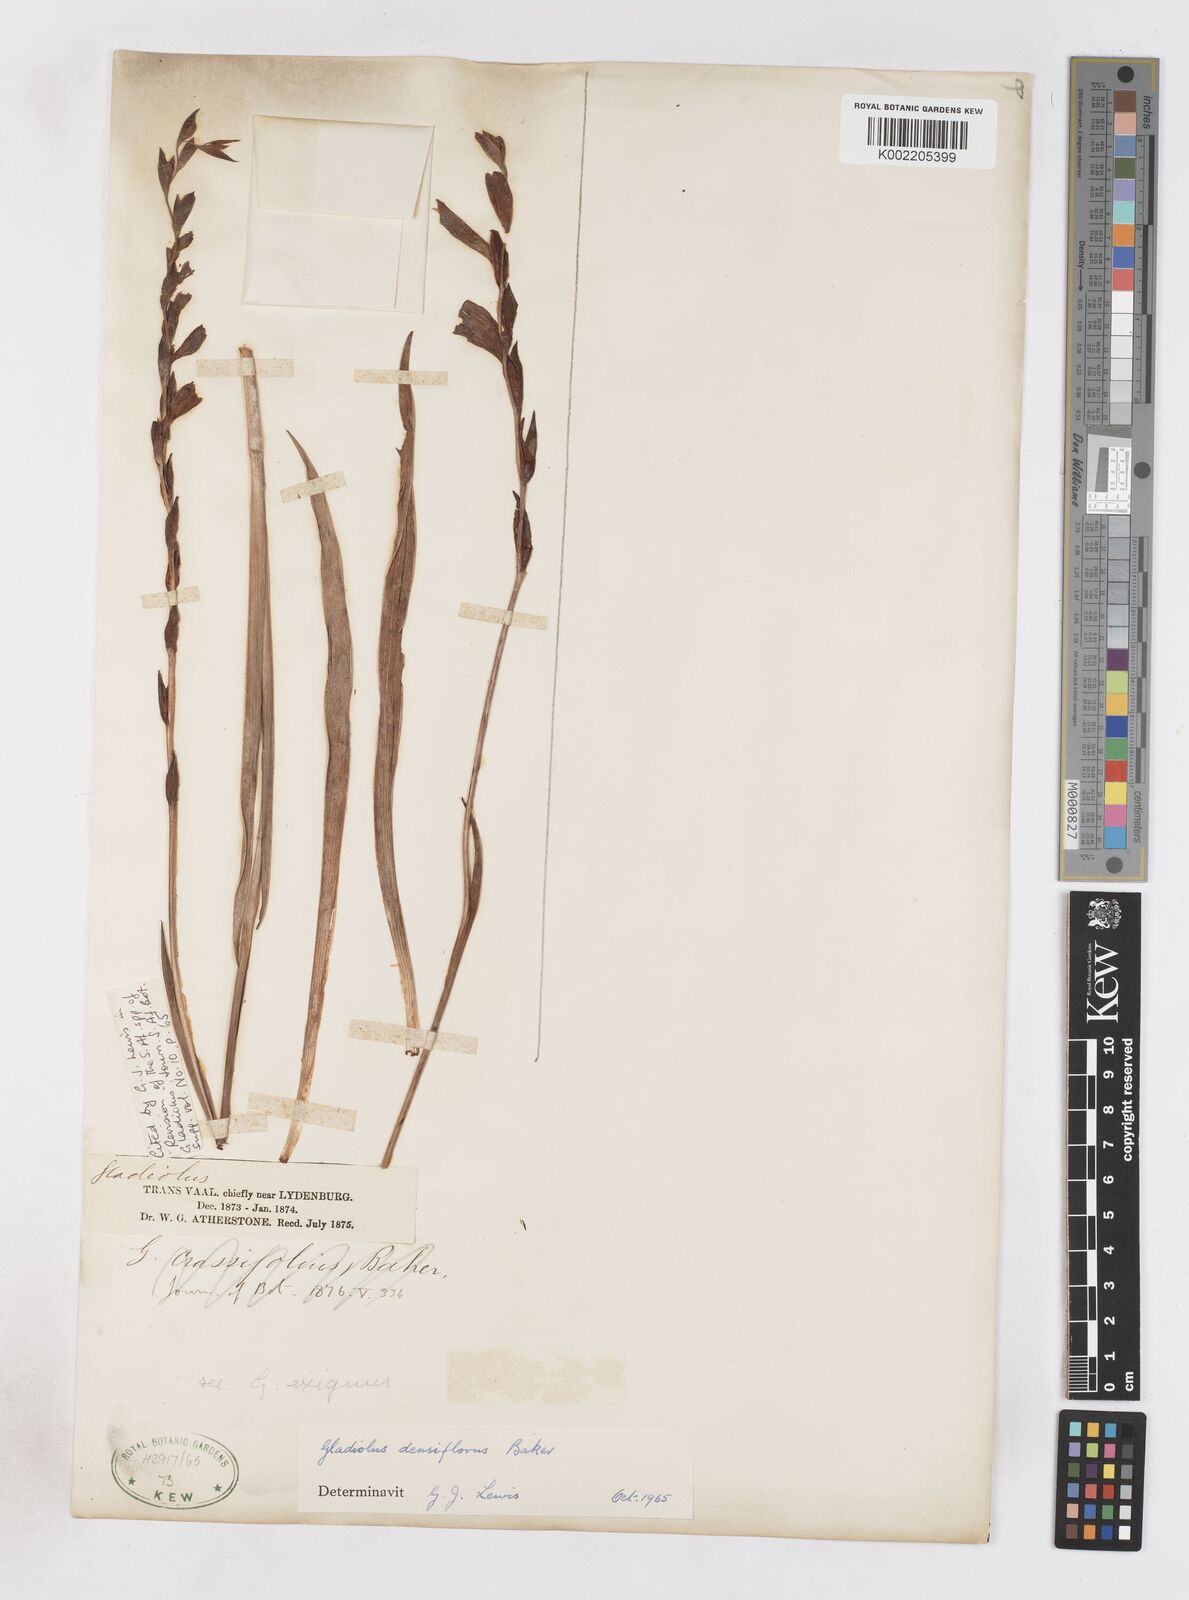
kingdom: Plantae
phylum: Tracheophyta
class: Liliopsida
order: Asparagales
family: Iridaceae
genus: Gladiolus
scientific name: Gladiolus densiflorus
